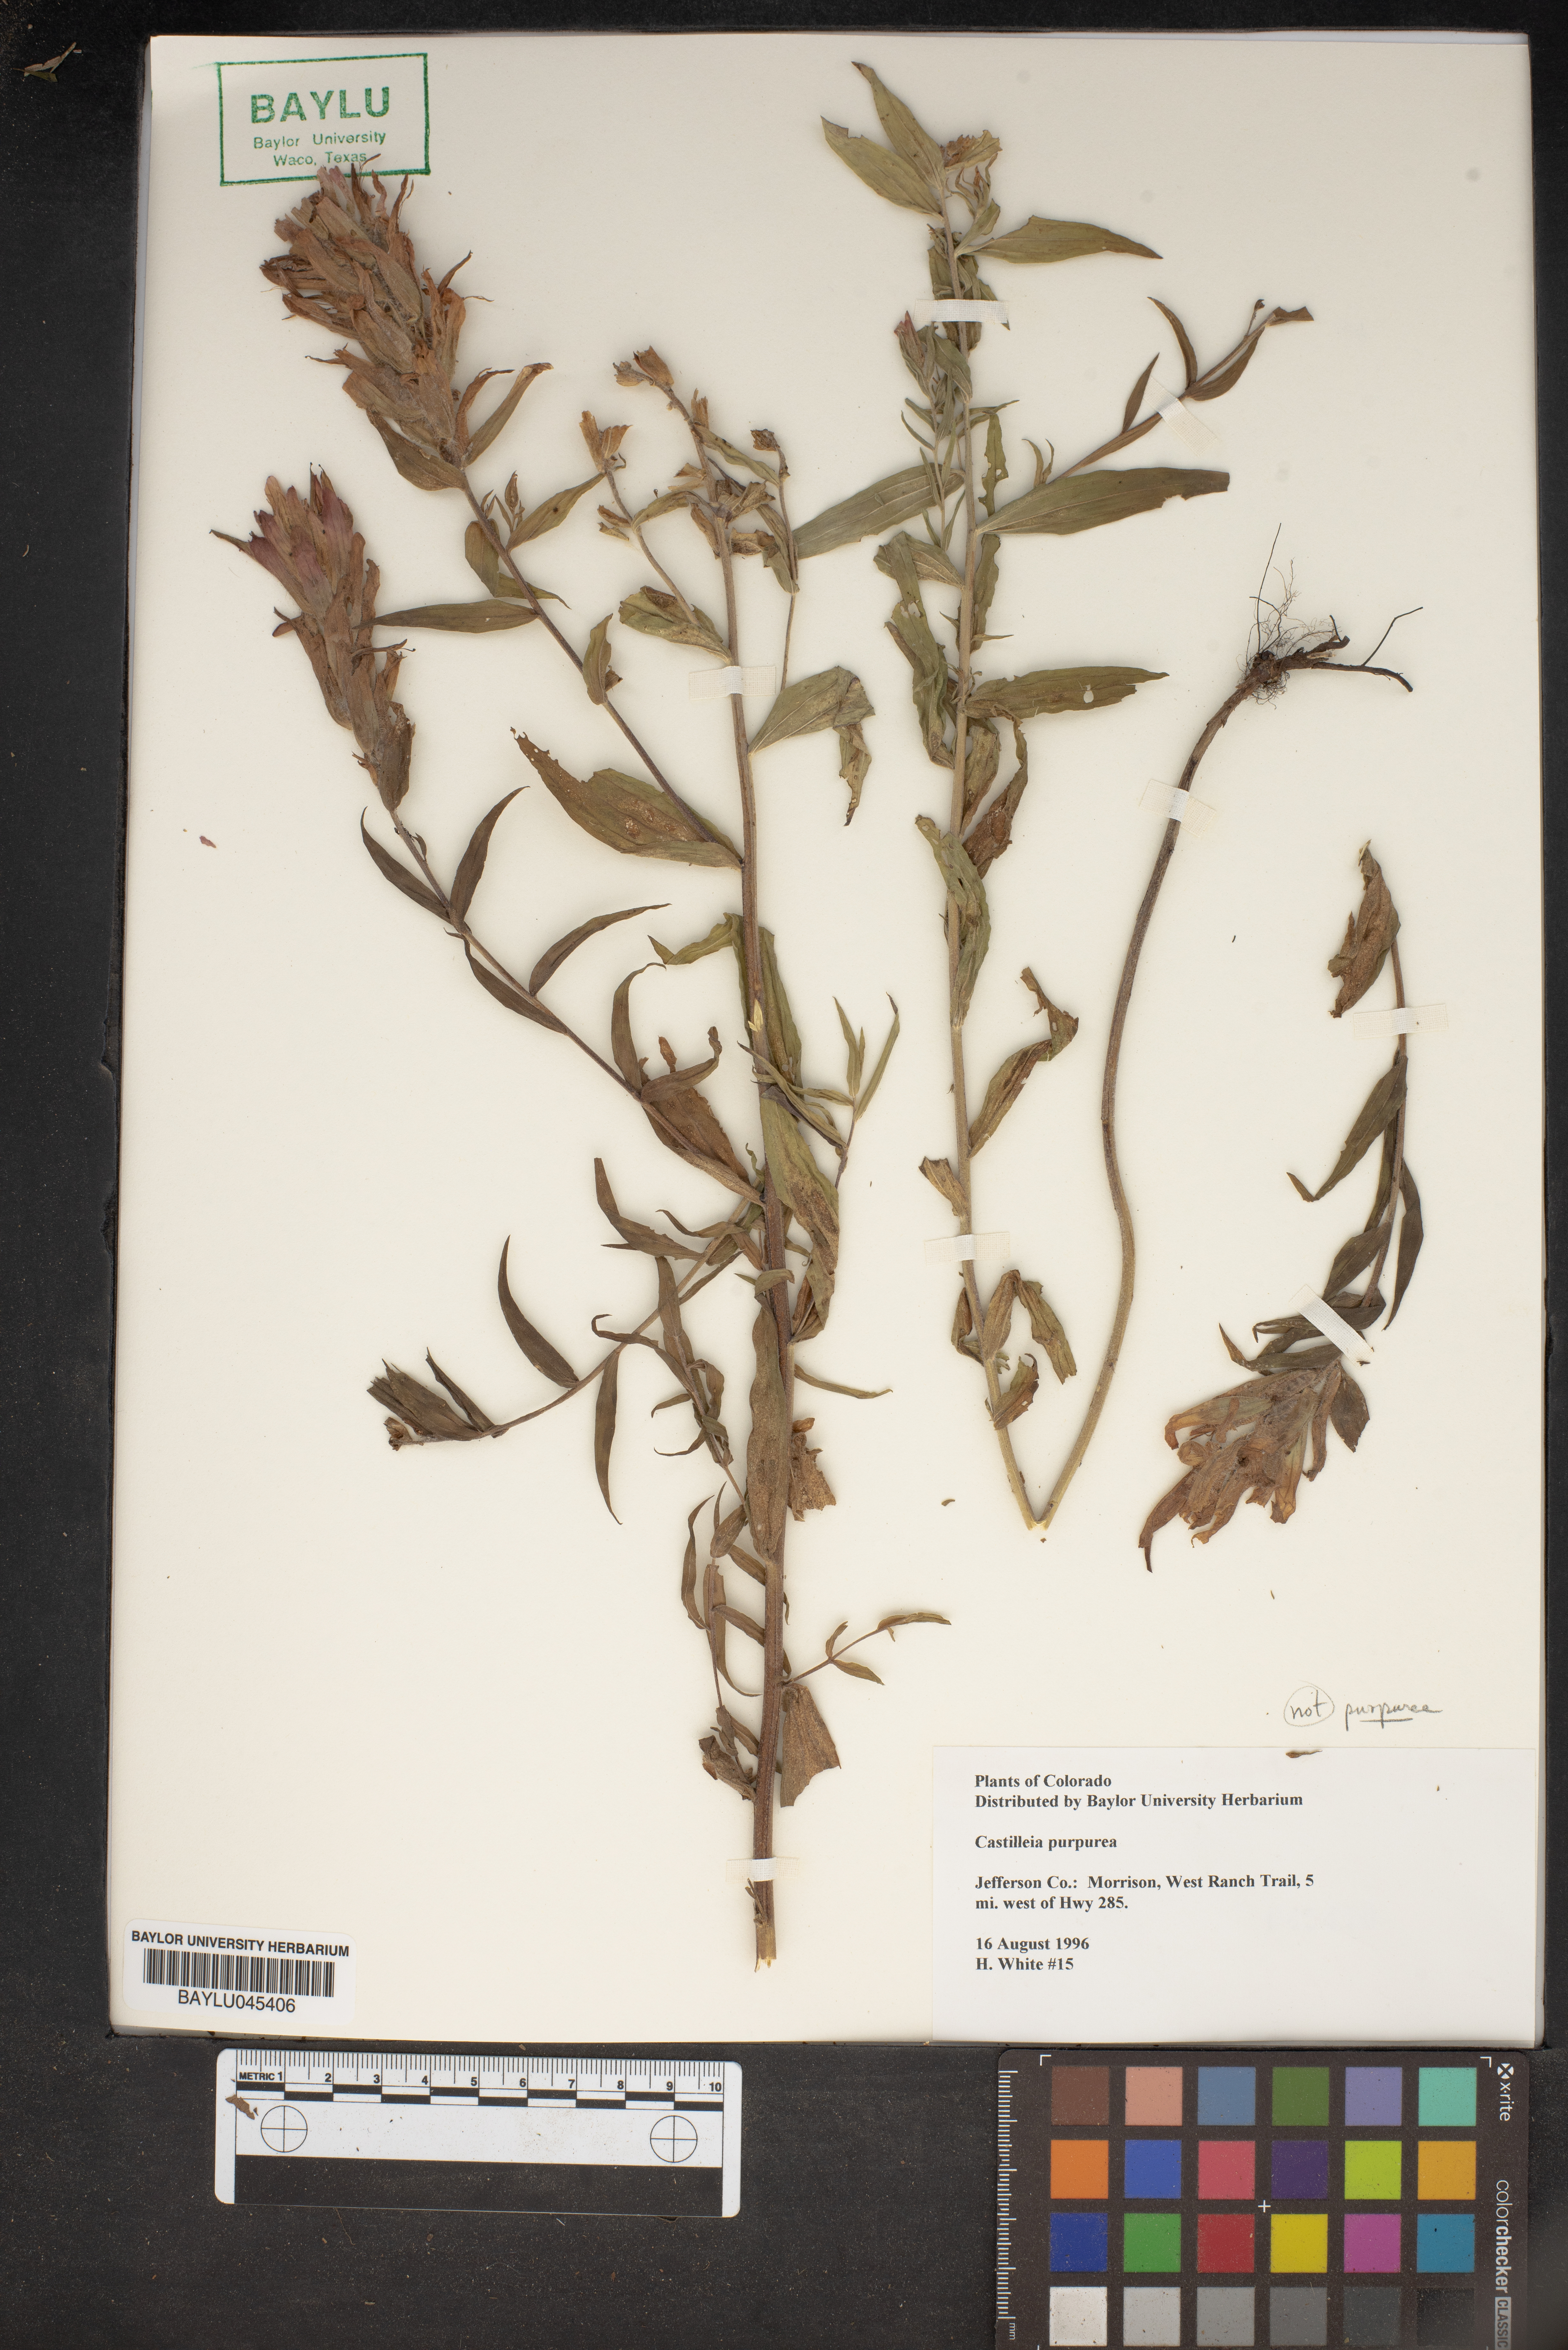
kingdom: Plantae
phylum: Tracheophyta
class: Magnoliopsida
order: Lamiales
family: Orobanchaceae
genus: Castilleja
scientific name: Castilleja purpurea
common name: Plains paintbrush
